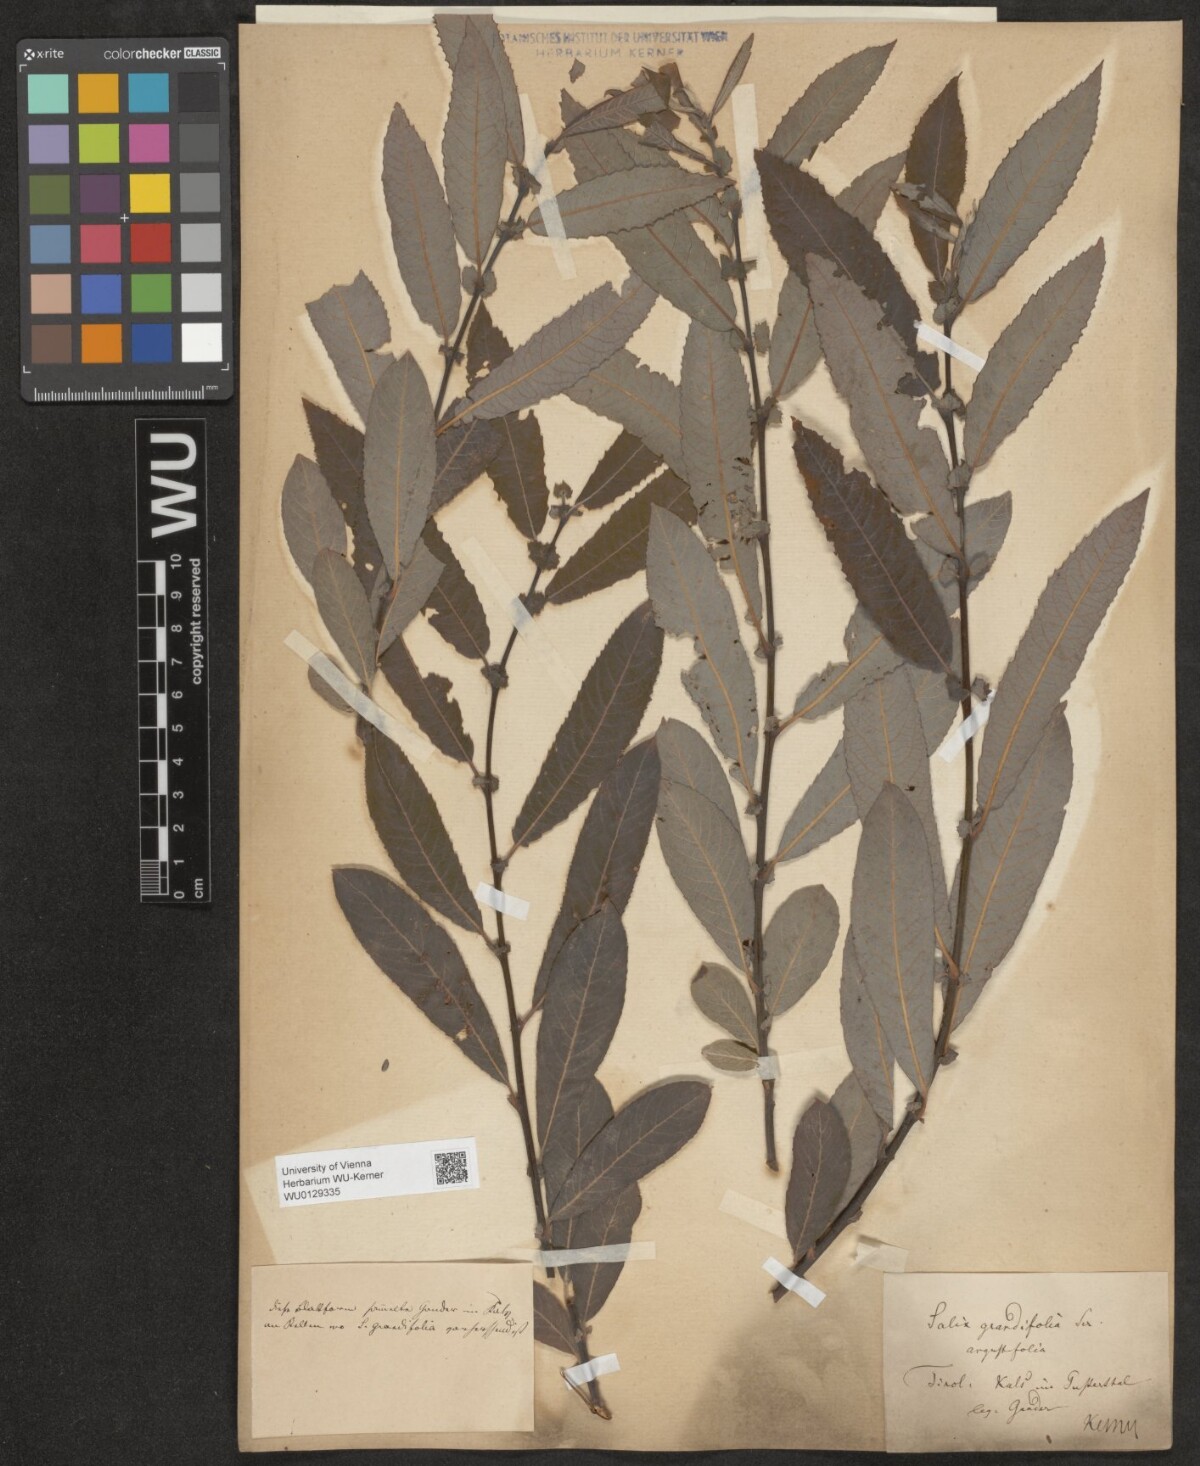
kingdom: Plantae
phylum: Tracheophyta
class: Magnoliopsida
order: Malpighiales
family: Salicaceae
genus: Salix
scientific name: Salix appendiculata
